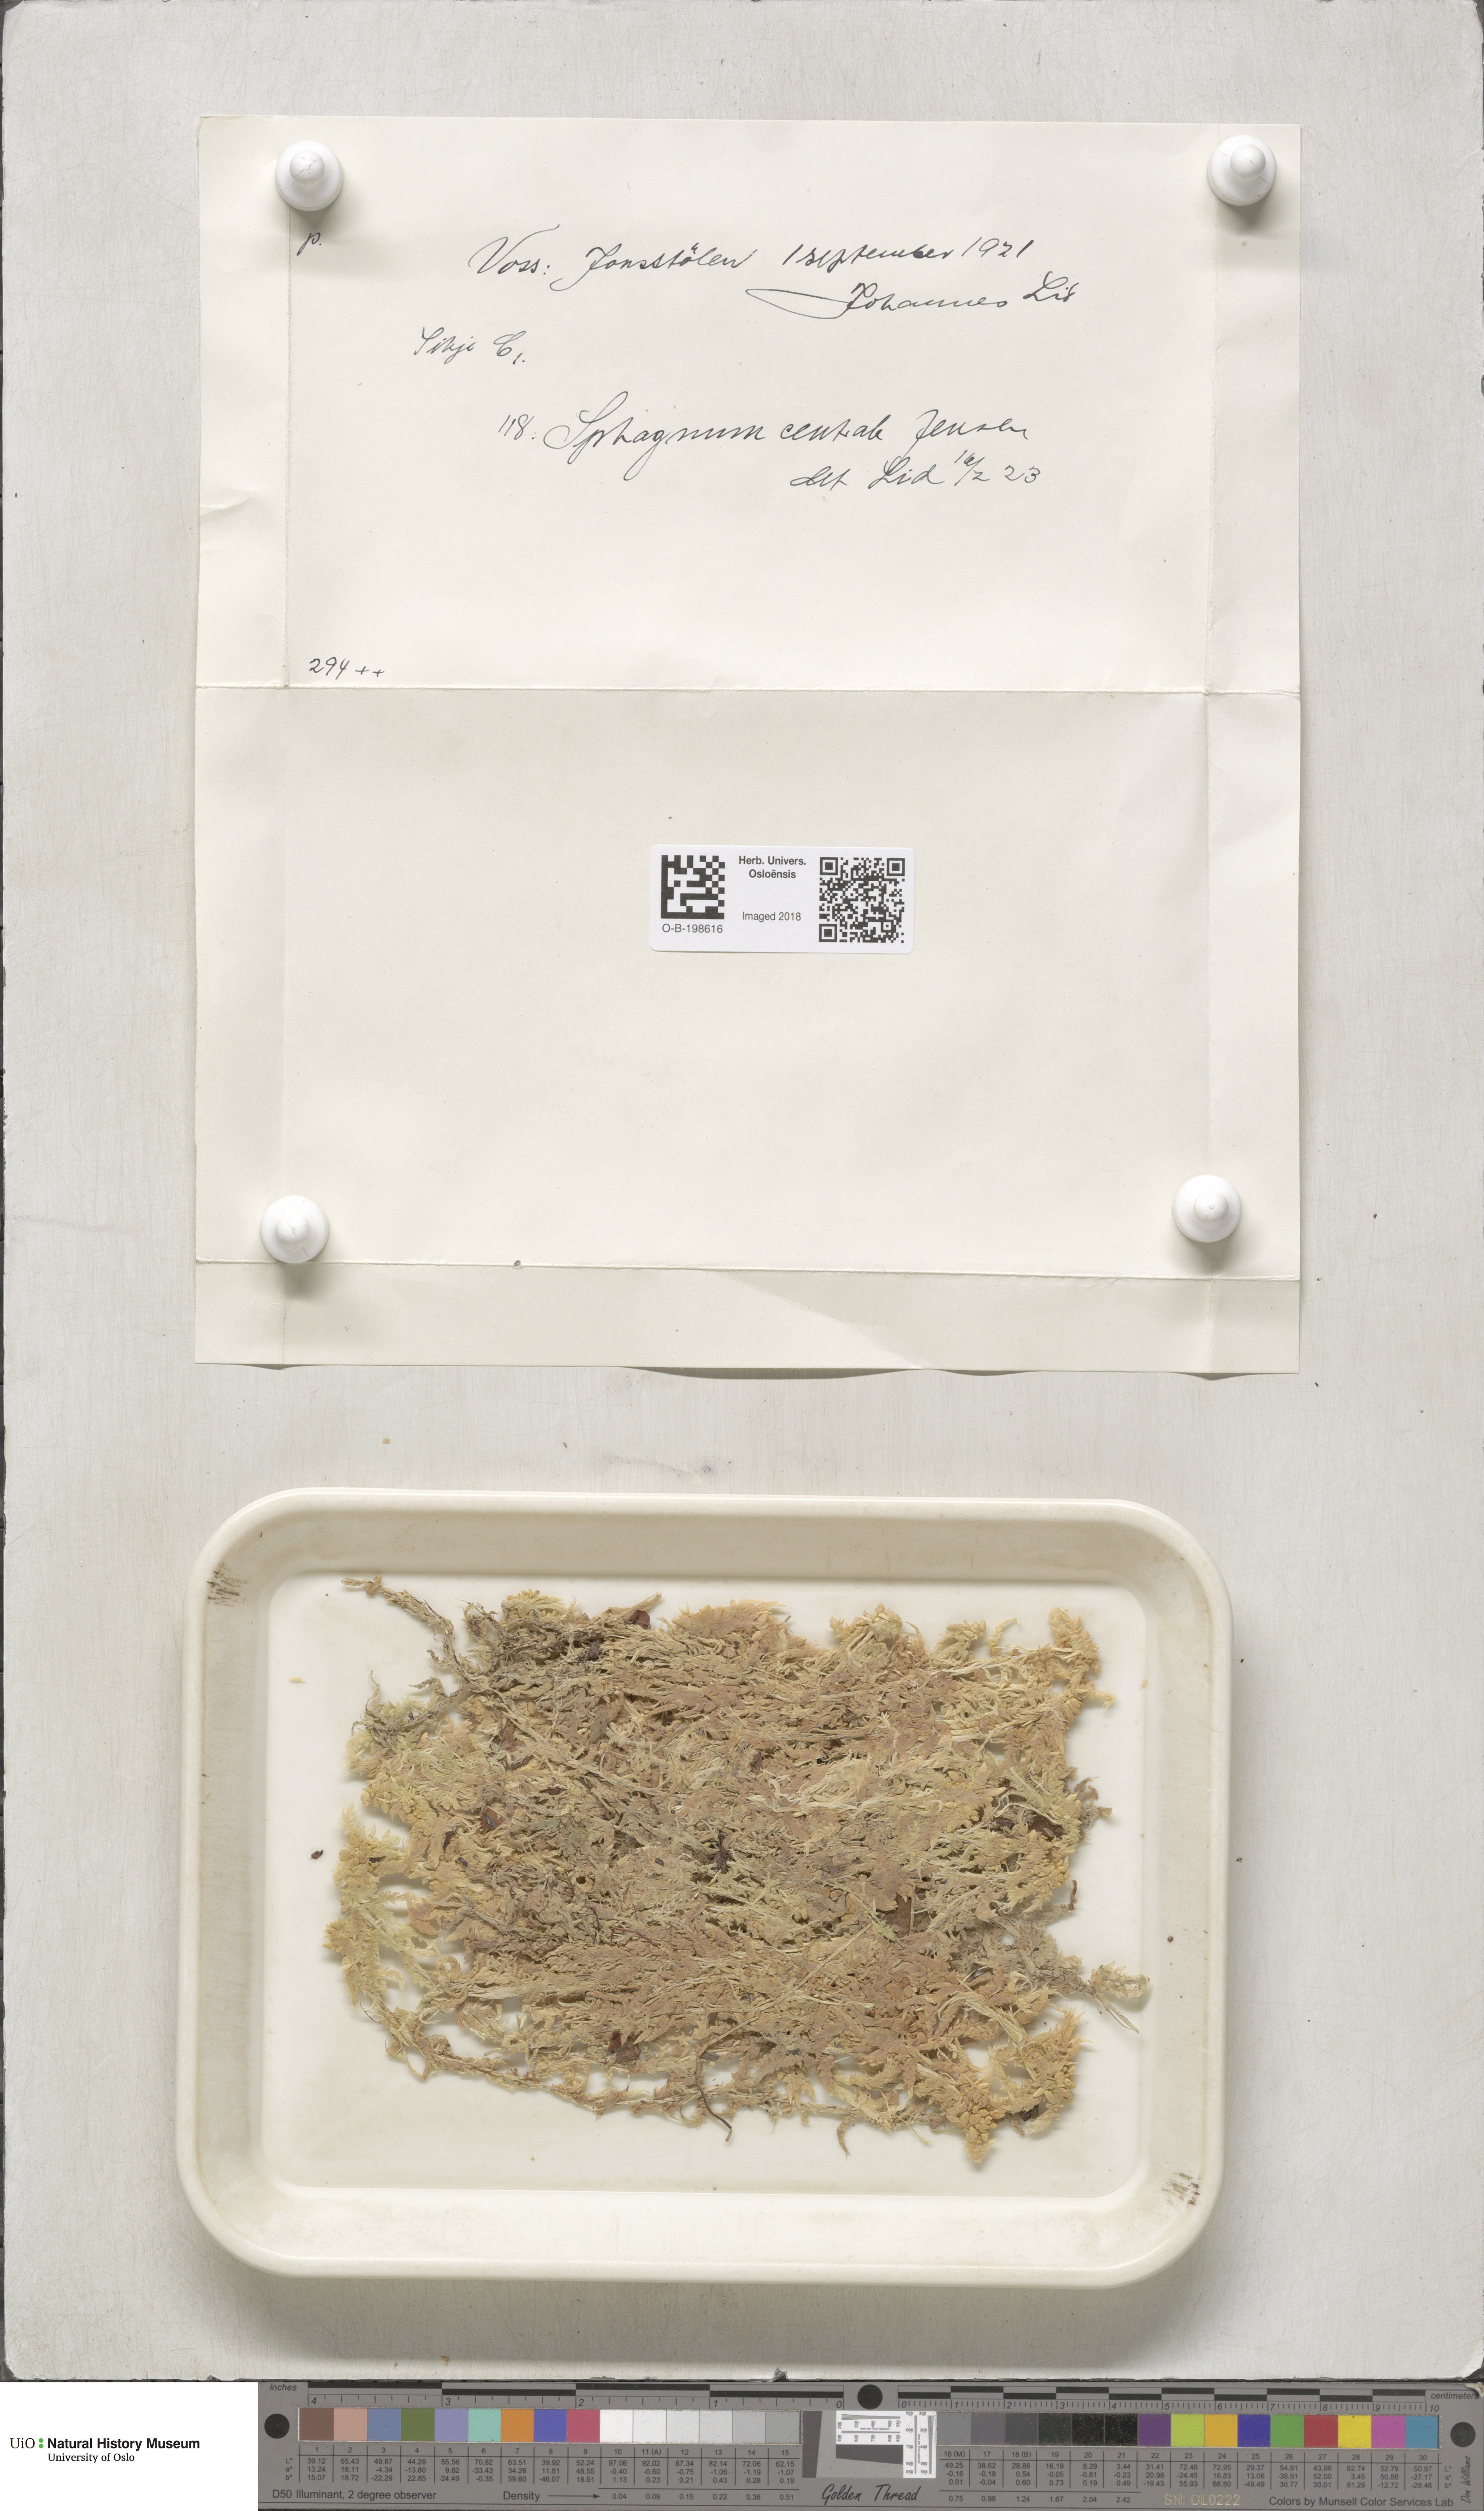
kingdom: Plantae
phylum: Bryophyta
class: Sphagnopsida
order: Sphagnales
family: Sphagnaceae
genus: Sphagnum
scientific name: Sphagnum centrale
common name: Central peat moss
